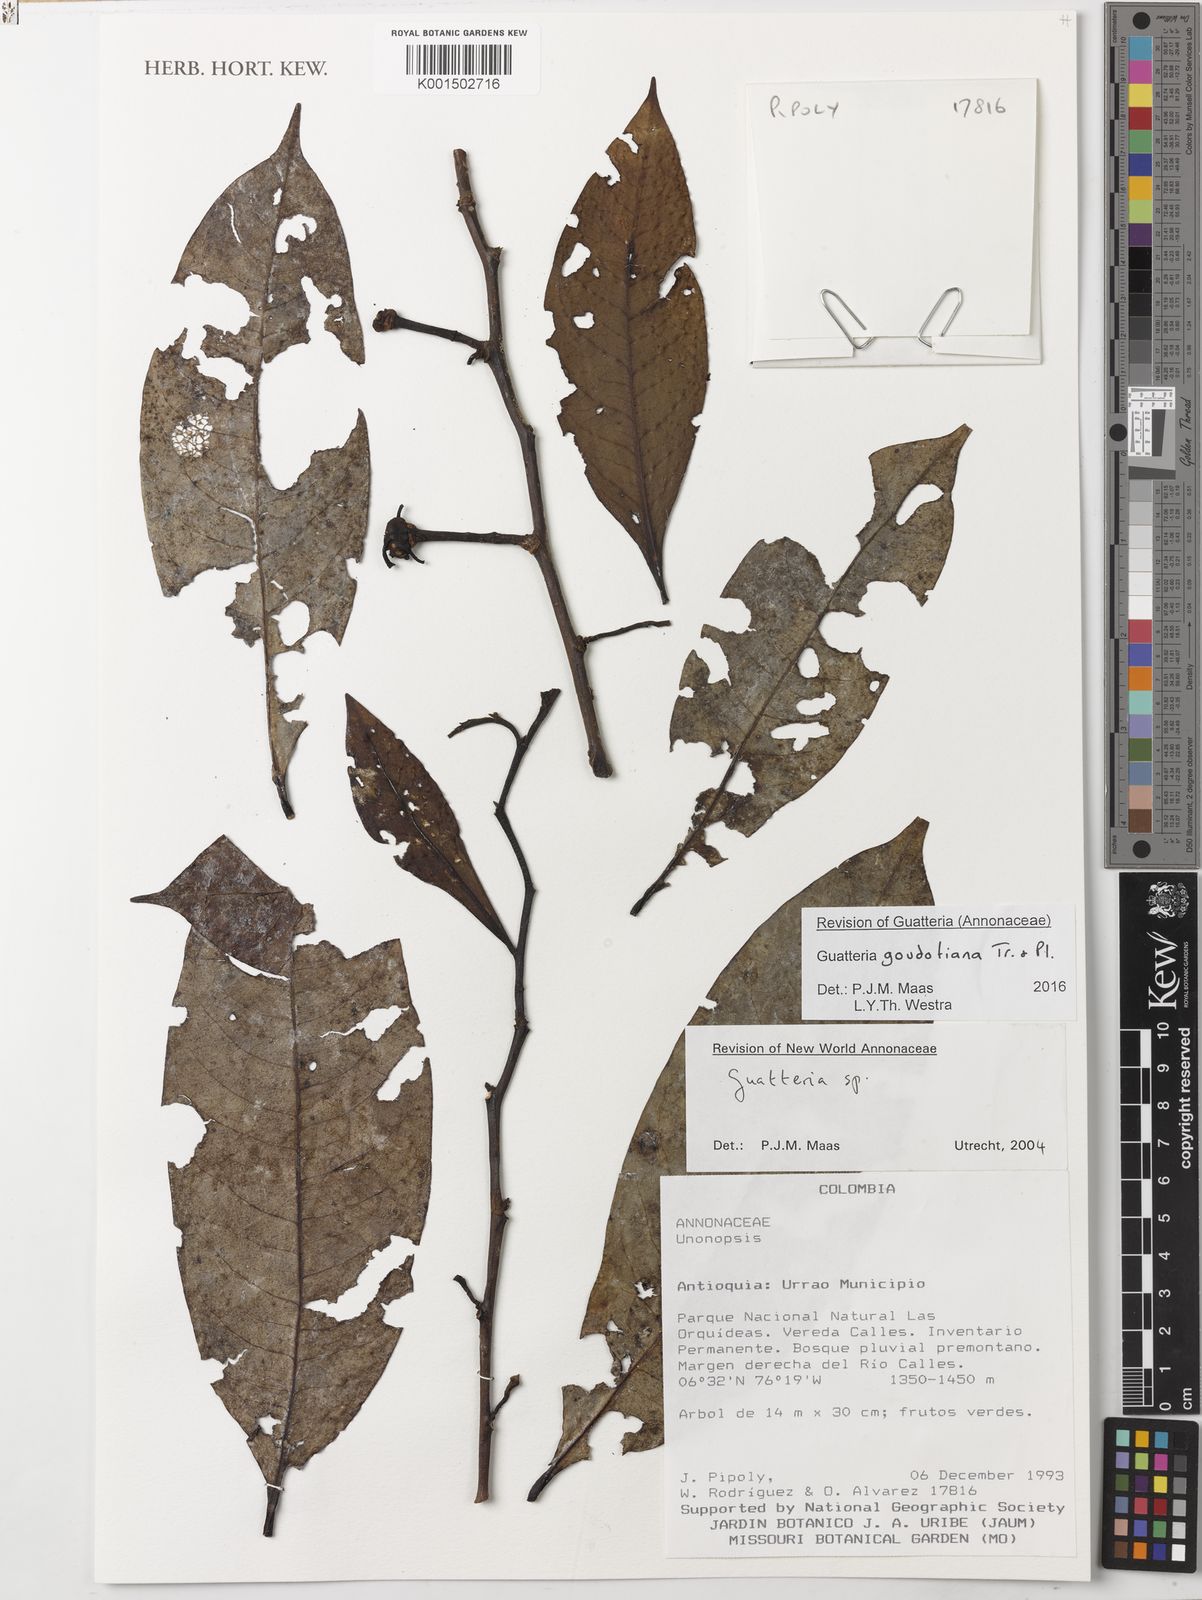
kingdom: Plantae
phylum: Tracheophyta
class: Magnoliopsida
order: Magnoliales
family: Annonaceae
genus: Guatteria
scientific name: Guatteria goudotiana
